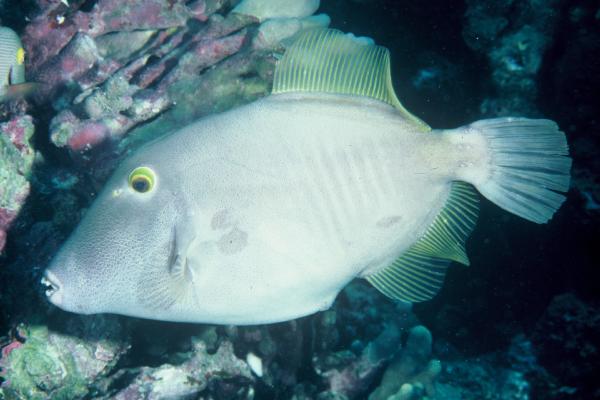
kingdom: Animalia
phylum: Chordata
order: Tetraodontiformes
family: Monacanthidae
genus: Cantherhines
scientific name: Cantherhines dumerilii
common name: Barred filefish
